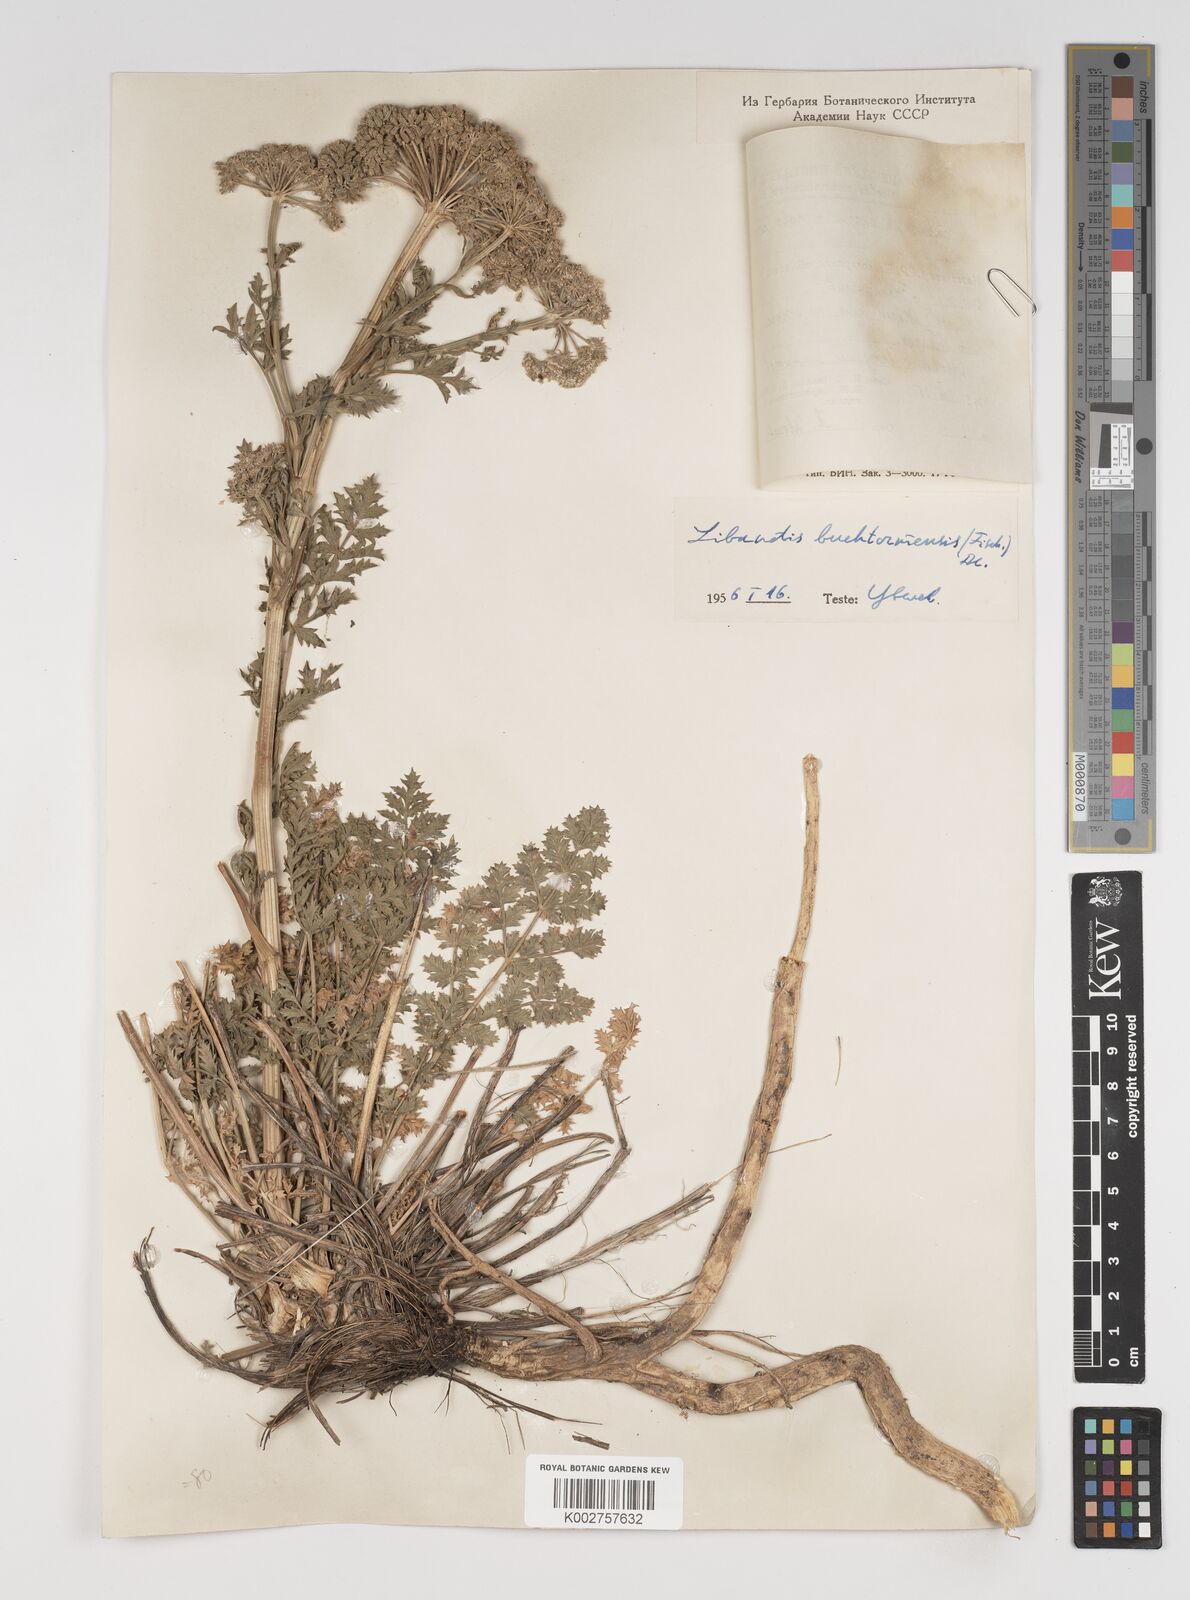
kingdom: Plantae
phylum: Tracheophyta
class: Magnoliopsida
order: Apiales
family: Apiaceae
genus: Seseli
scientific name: Seseli buchtormense
